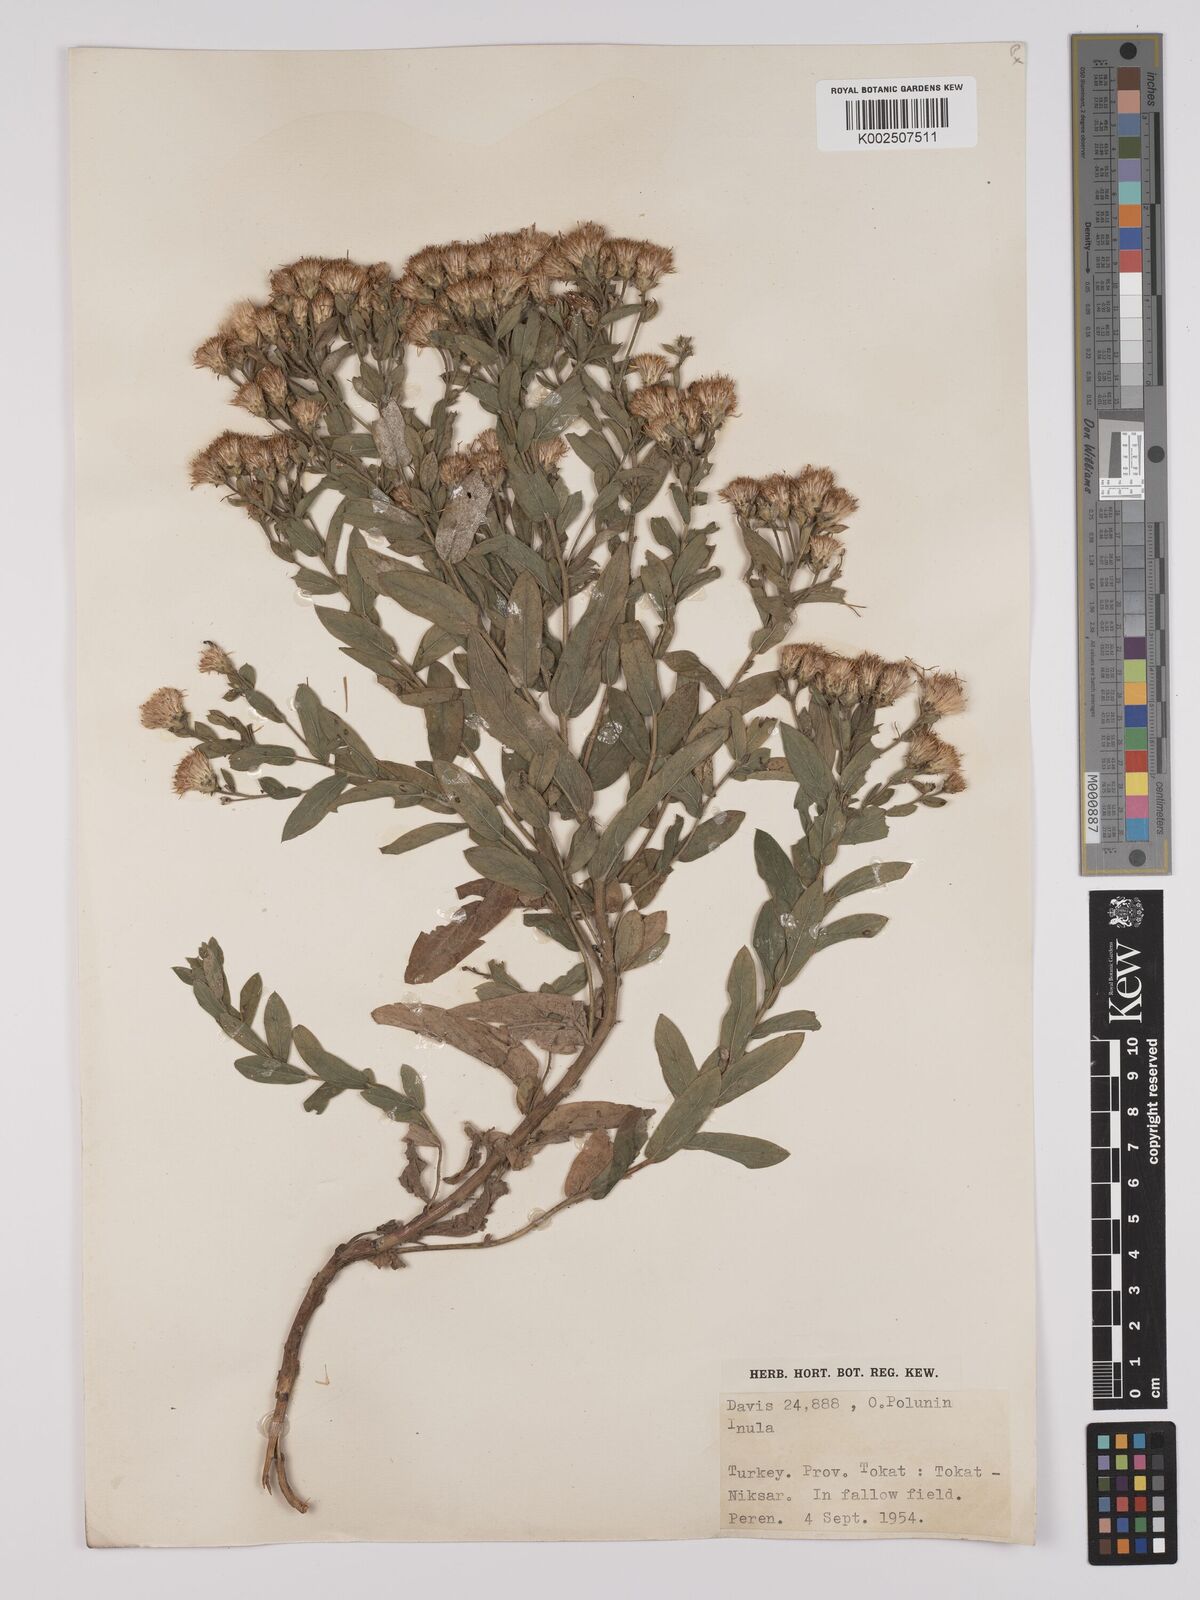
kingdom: Plantae
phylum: Tracheophyta
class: Magnoliopsida
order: Asterales
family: Asteraceae
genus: Pentanema
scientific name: Pentanema salicinum
